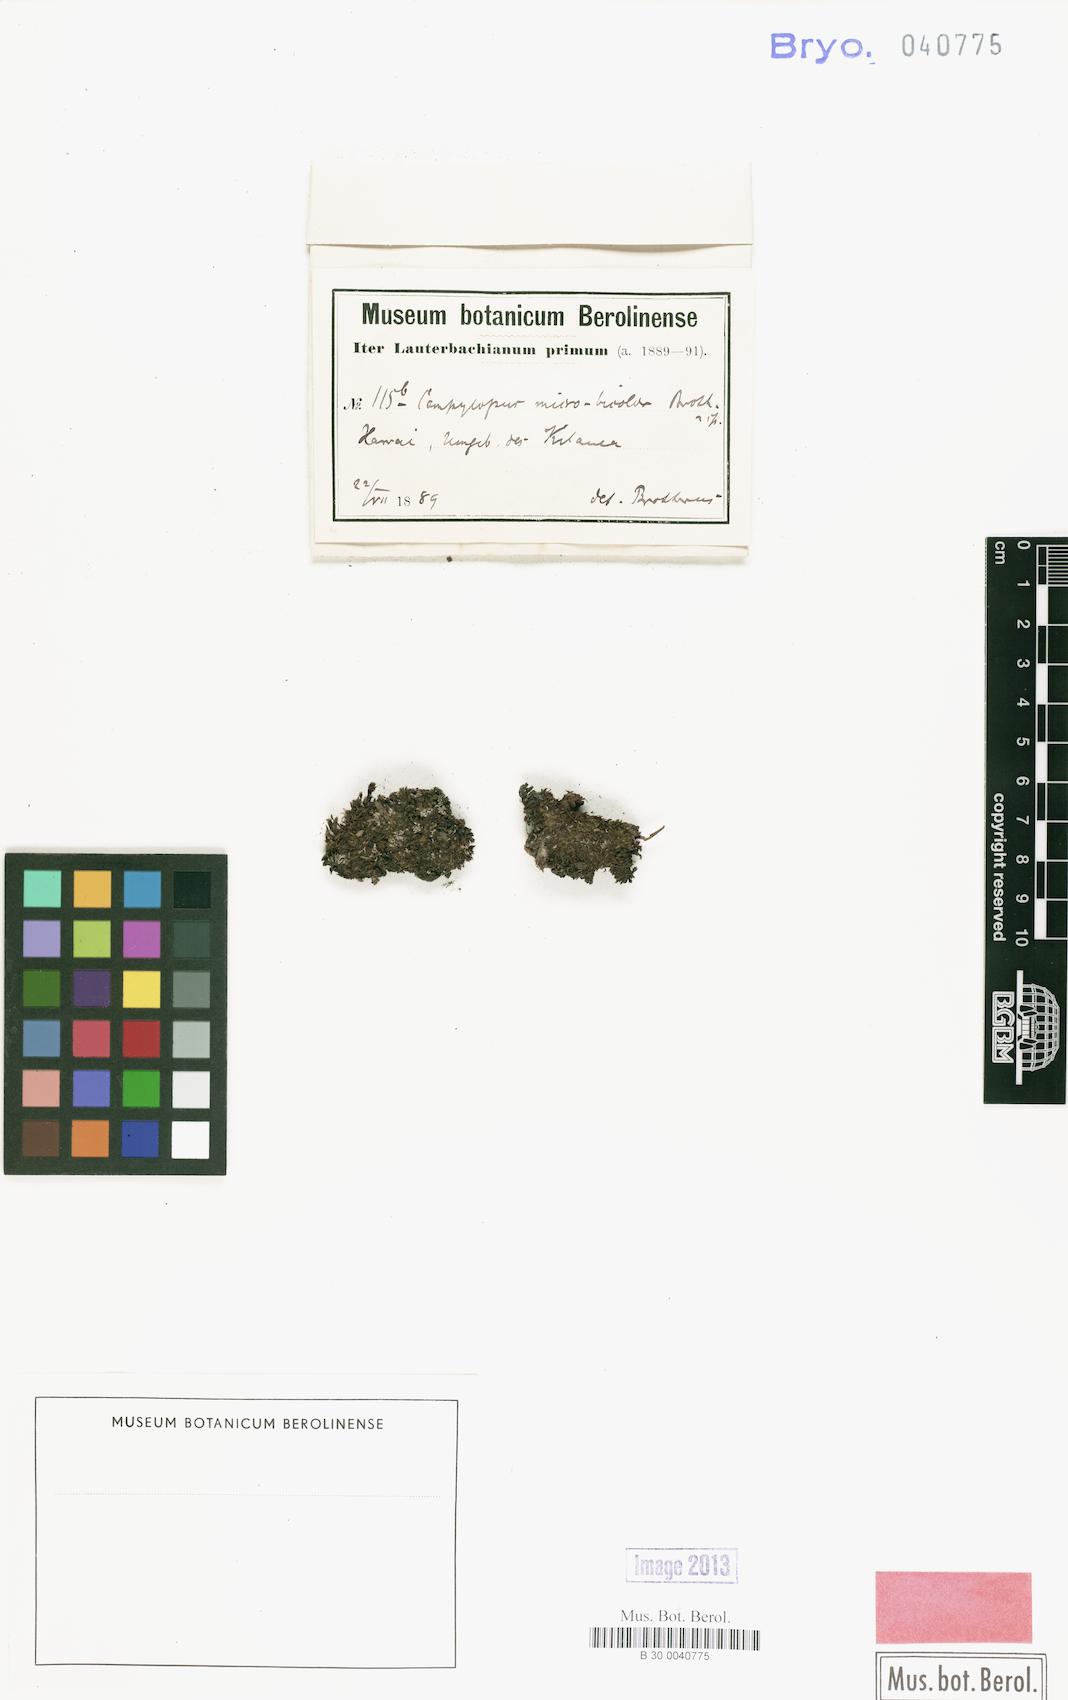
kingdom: Plantae
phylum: Bryophyta
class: Bryopsida
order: Dicranales
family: Dicranaceae
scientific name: Dicranaceae
